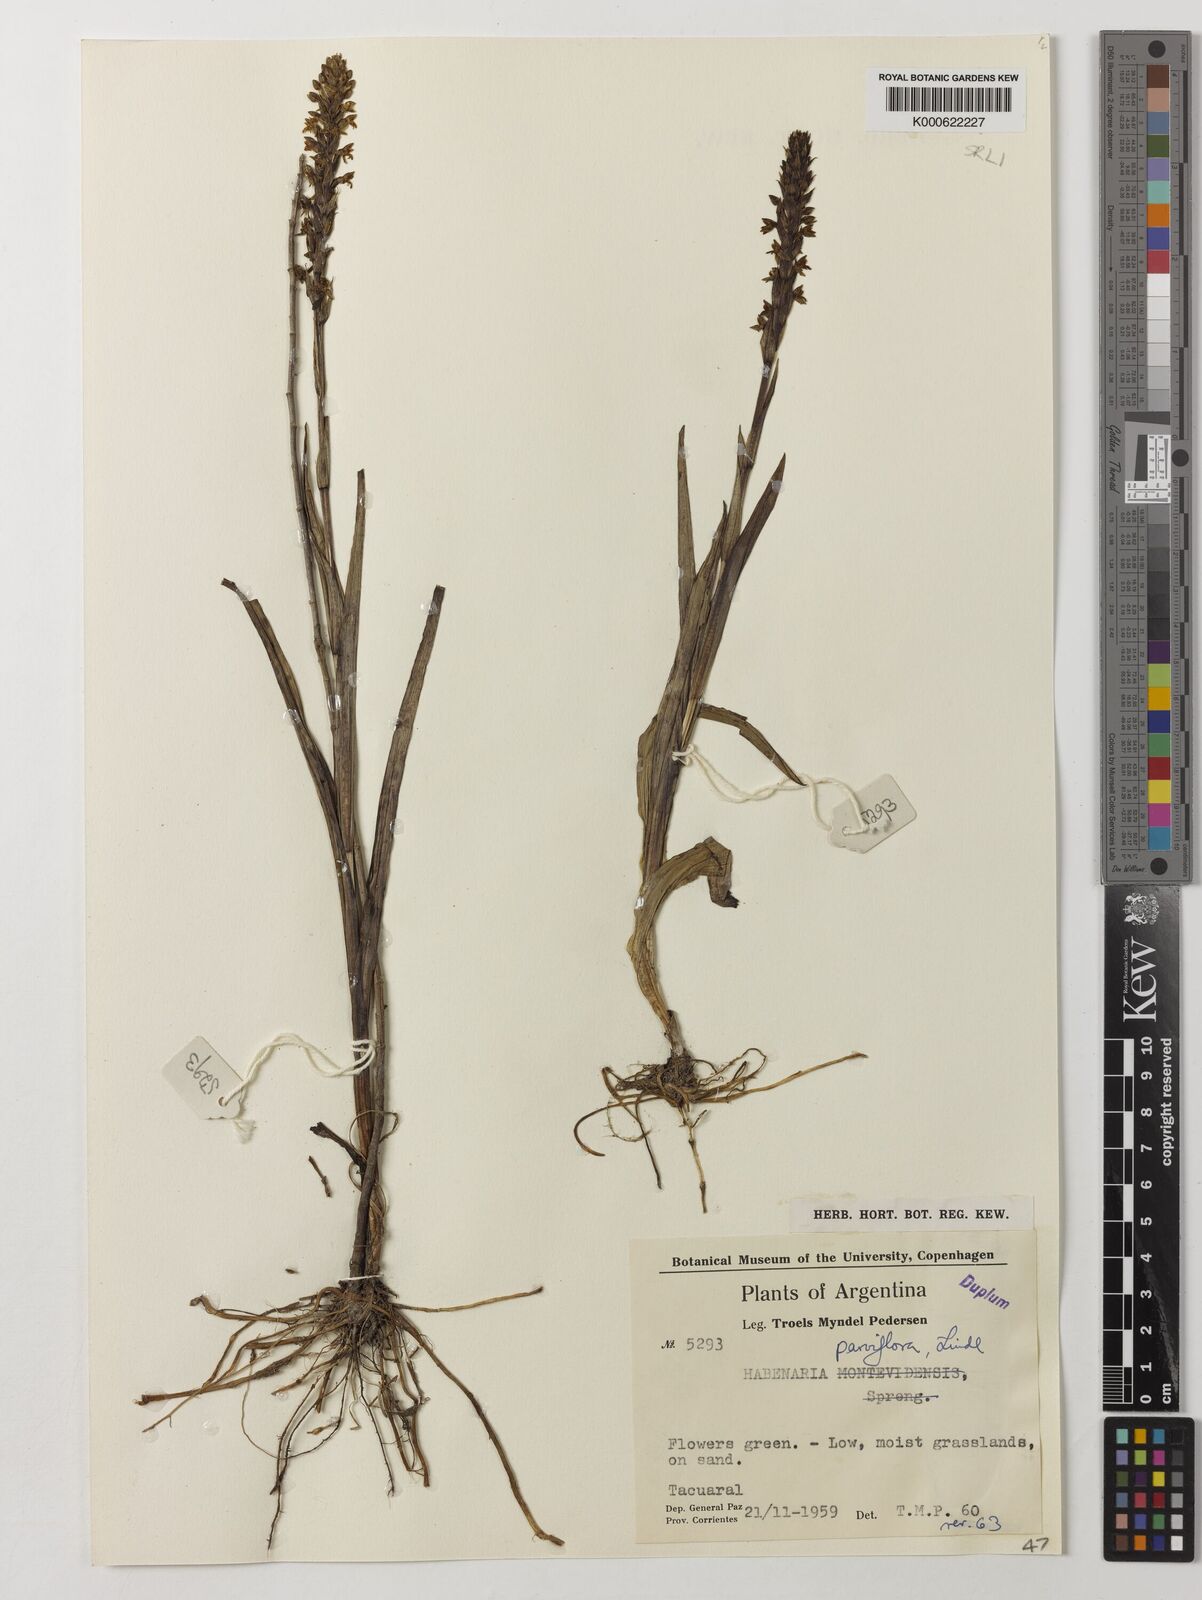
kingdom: Plantae
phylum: Tracheophyta
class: Liliopsida
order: Asparagales
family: Orchidaceae
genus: Habenaria
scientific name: Habenaria parviflora
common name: Small flowered habenaria
